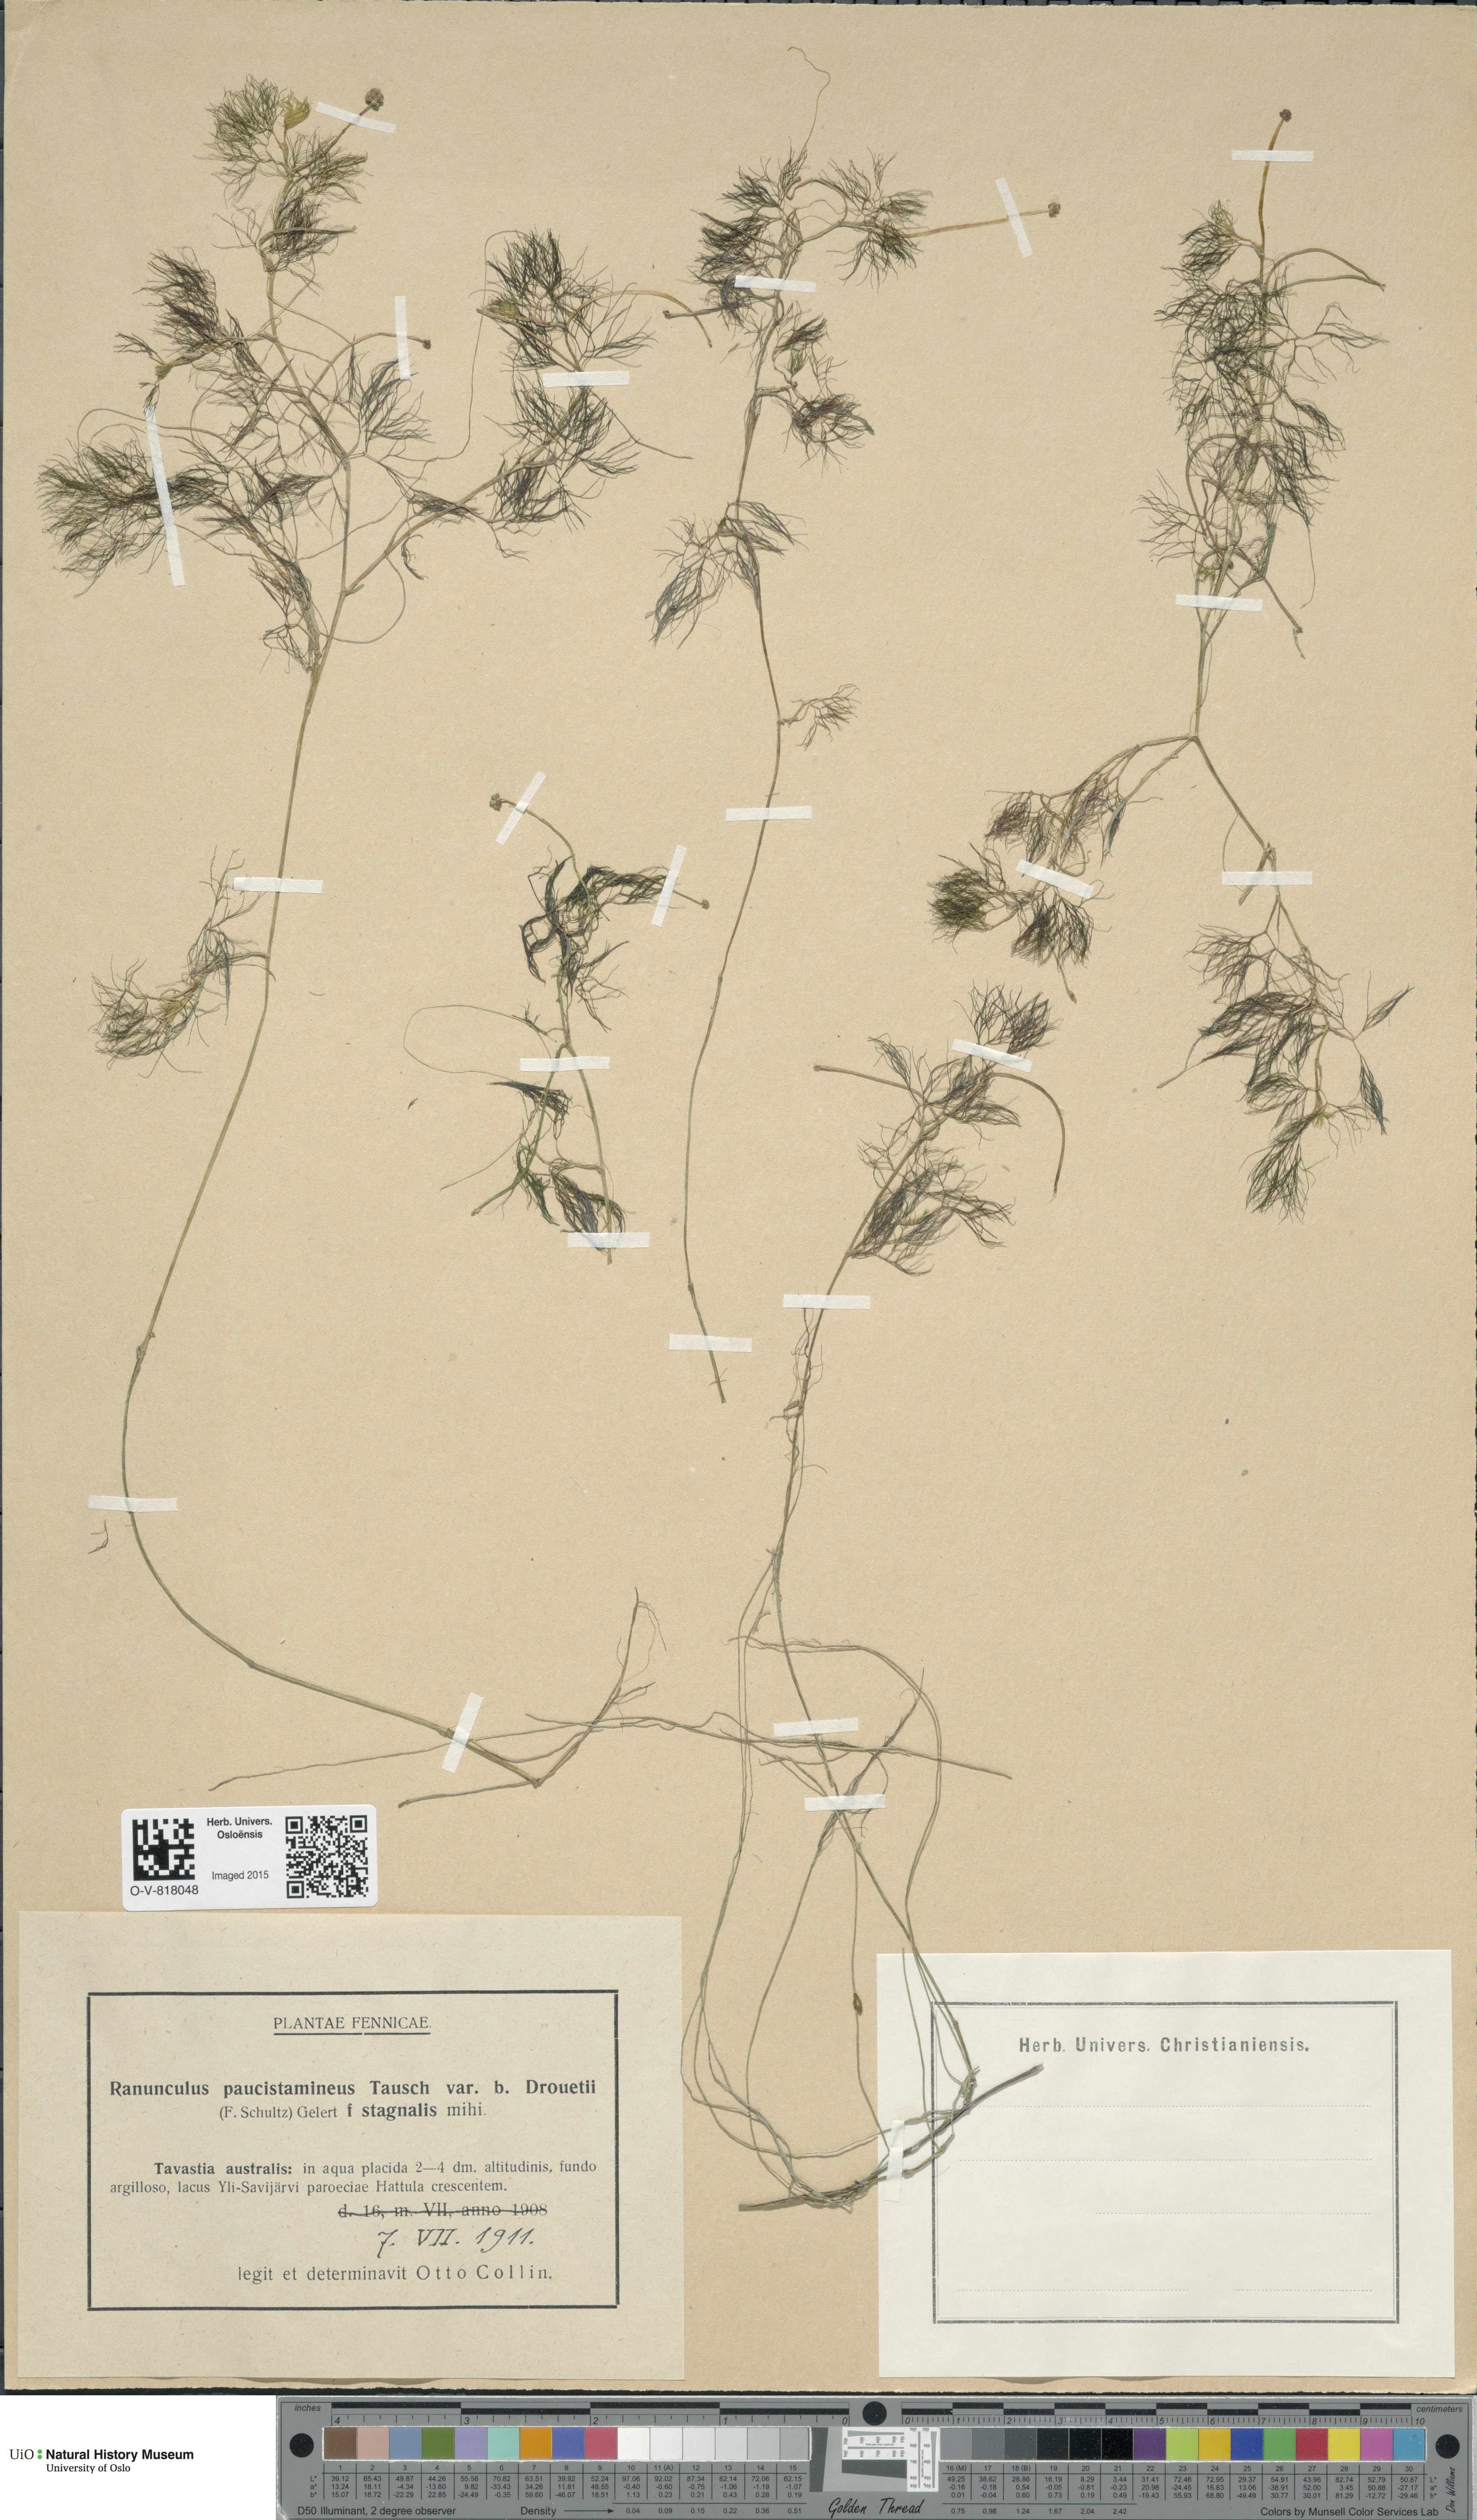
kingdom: Plantae
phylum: Tracheophyta
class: Magnoliopsida
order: Ranunculales
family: Ranunculaceae
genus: Ranunculus
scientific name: Ranunculus trichophyllus
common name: Thread-leaved water-crowfoot
